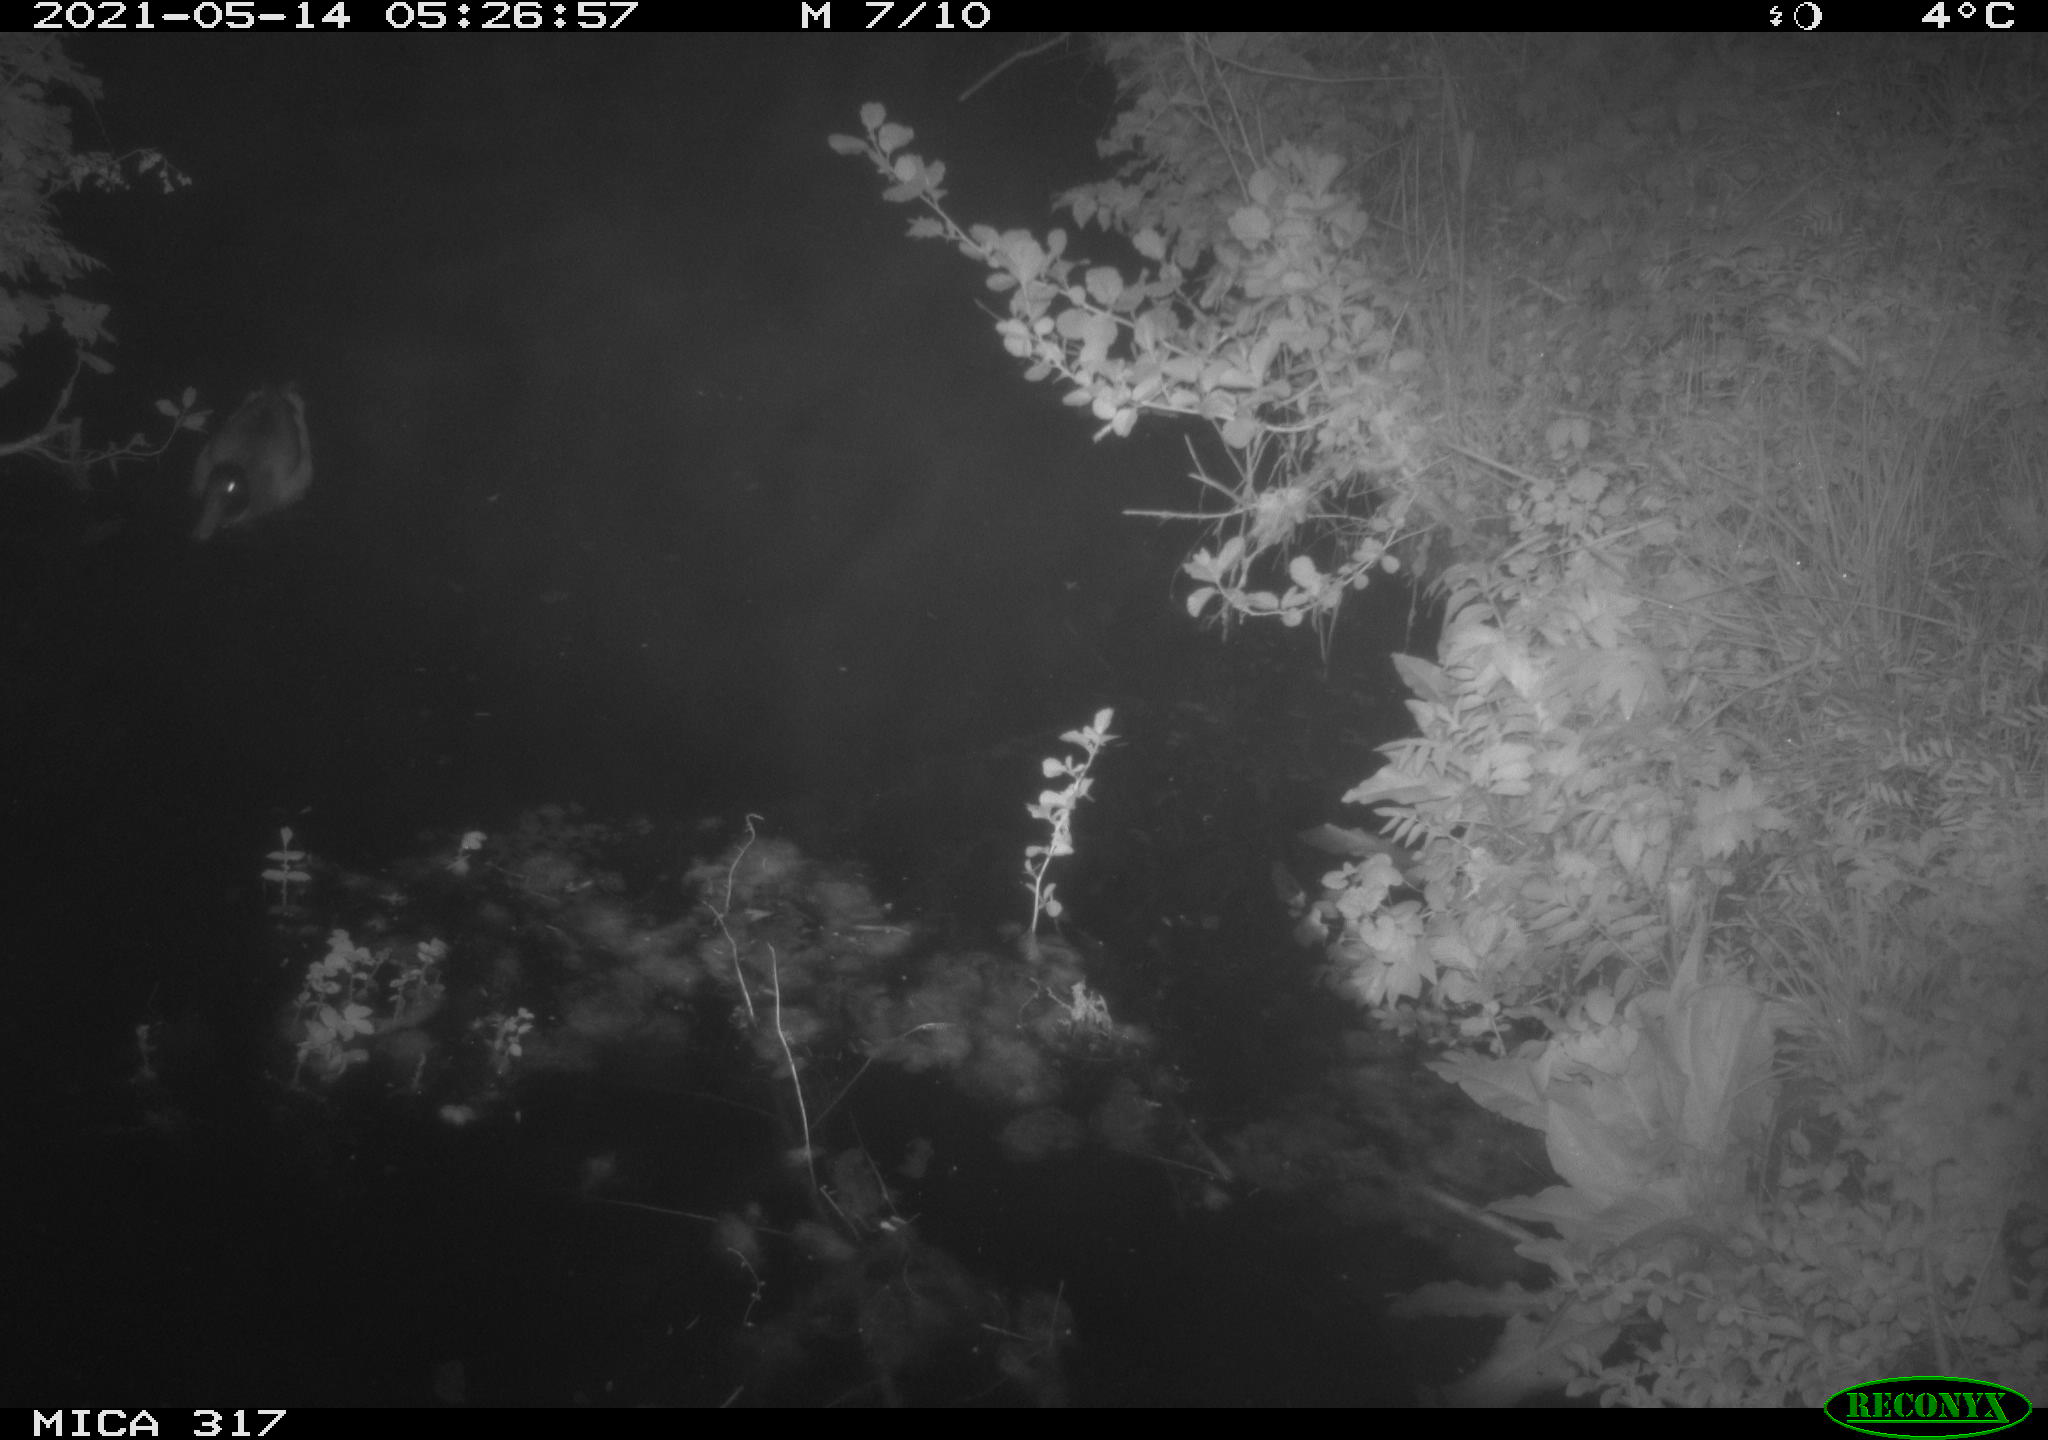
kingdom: Animalia
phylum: Chordata
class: Aves
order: Anseriformes
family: Anatidae
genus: Anas
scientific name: Anas
